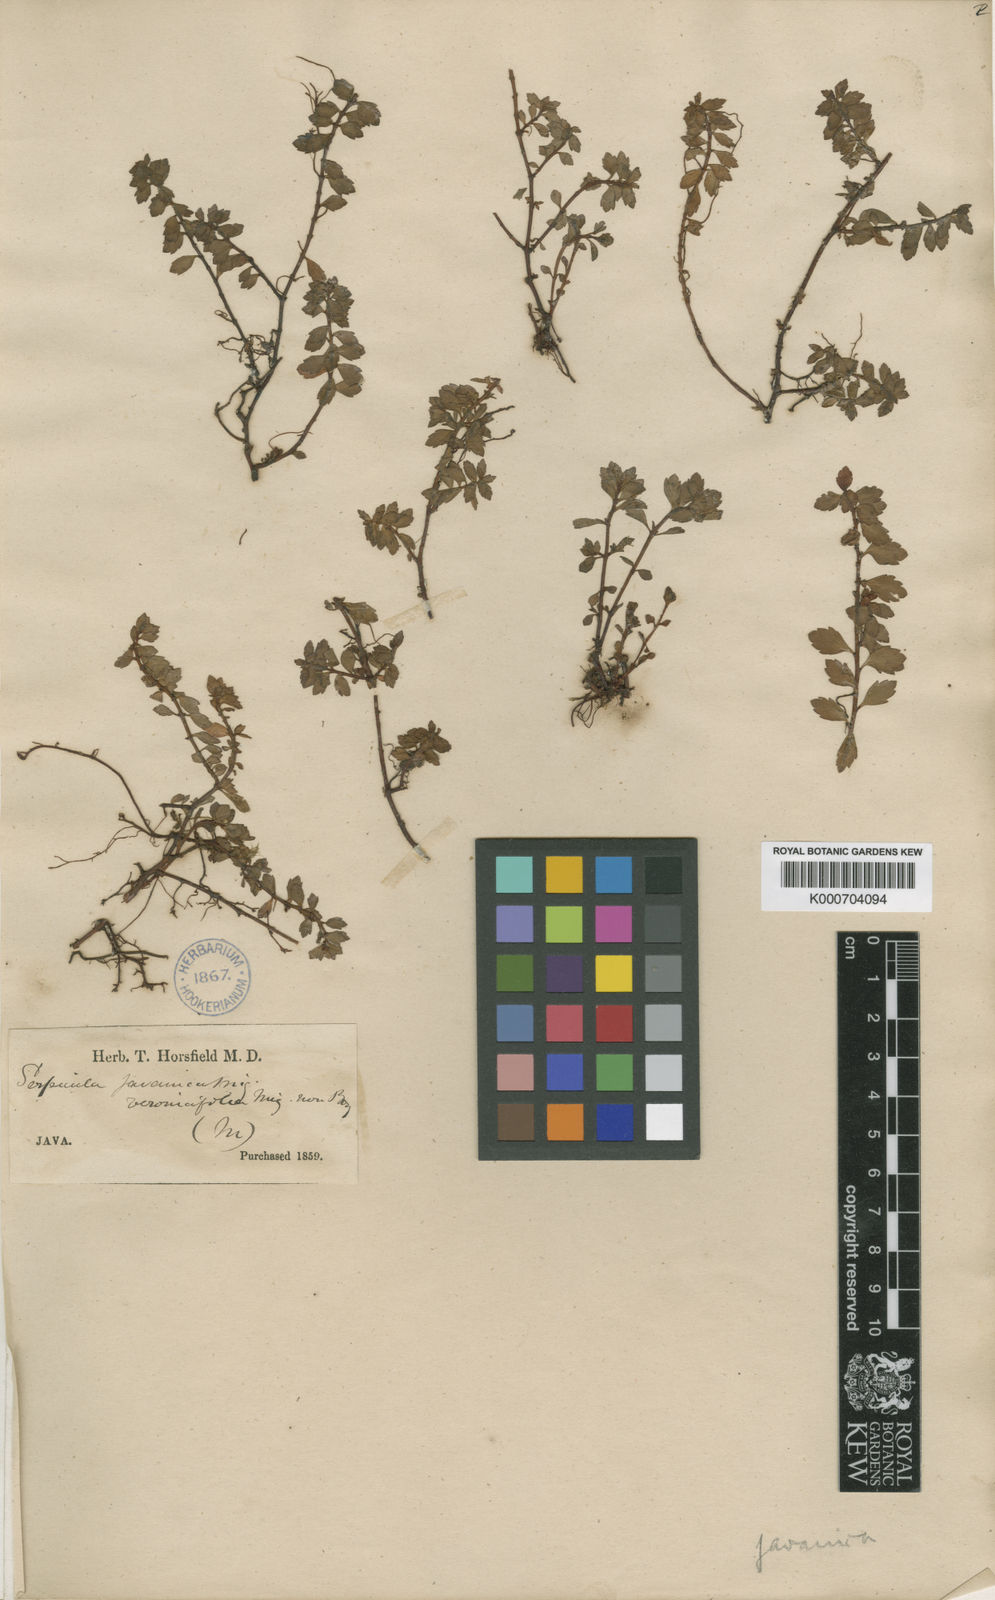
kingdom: Plantae
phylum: Tracheophyta
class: Magnoliopsida
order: Saxifragales
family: Haloragaceae
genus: Laurembergia
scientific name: Laurembergia coccinea
